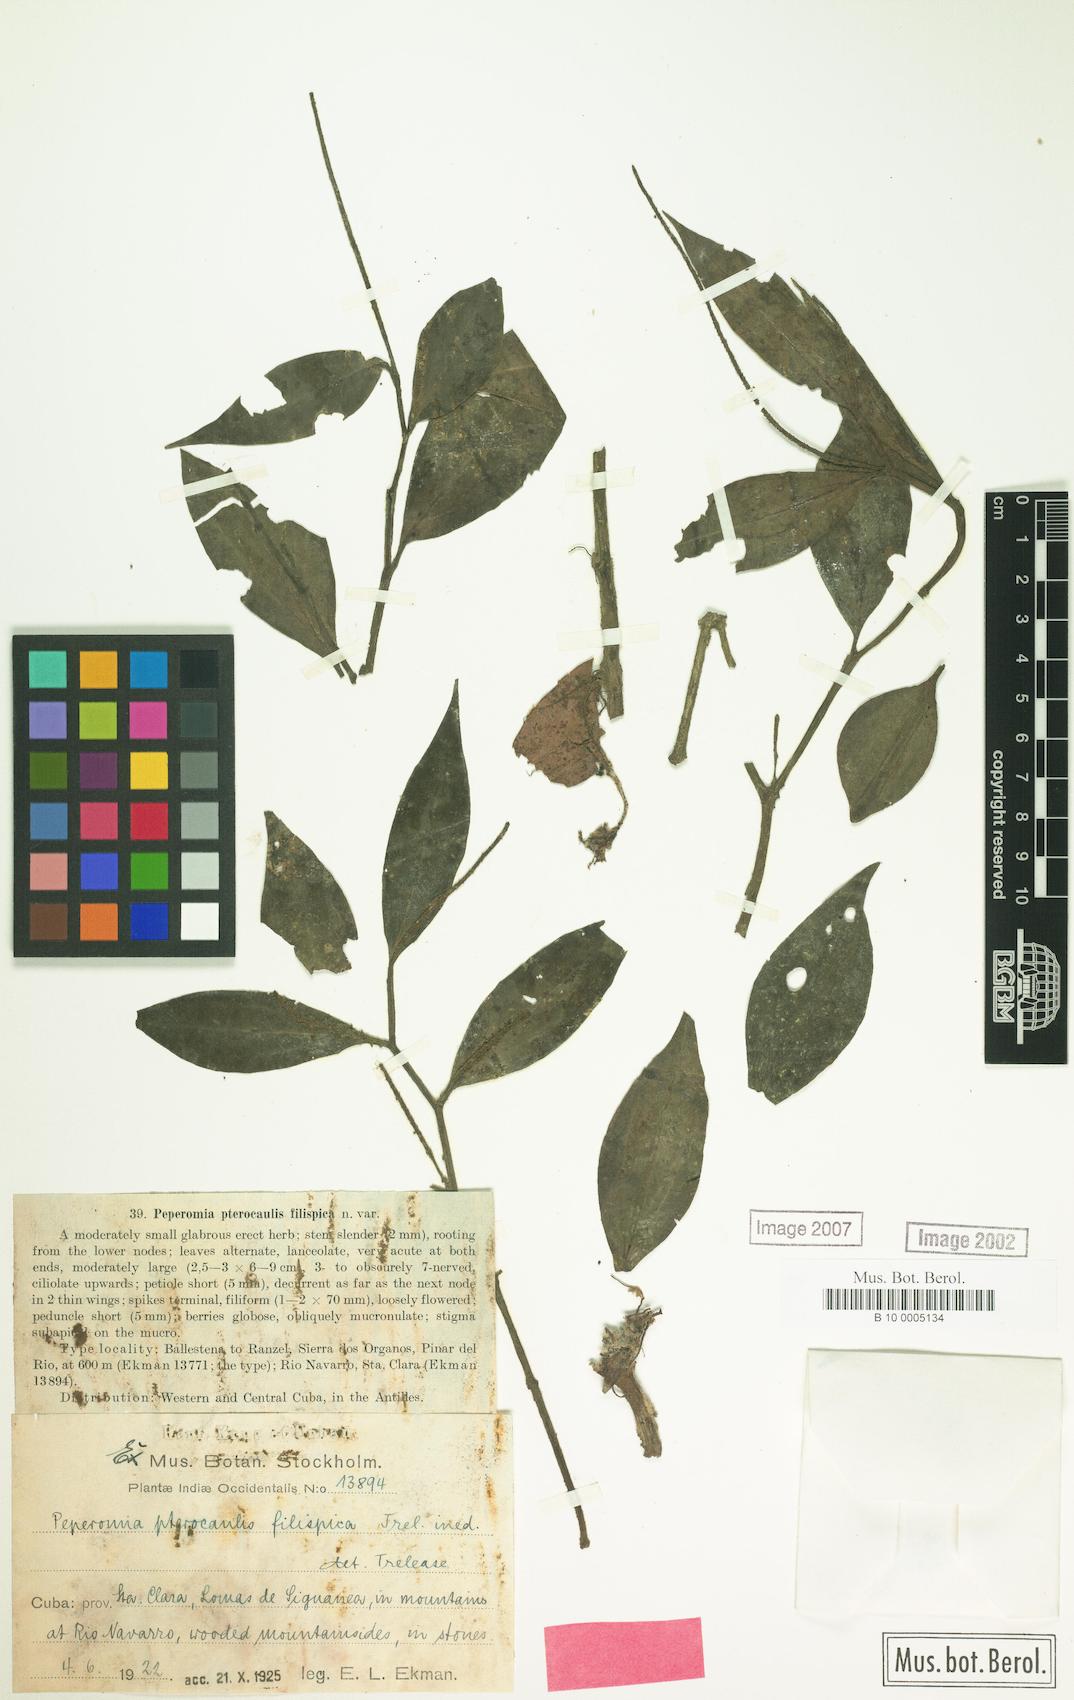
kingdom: Plantae
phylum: Tracheophyta
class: Magnoliopsida
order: Piperales
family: Piperaceae
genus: Peperomia
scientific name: Peperomia alata
